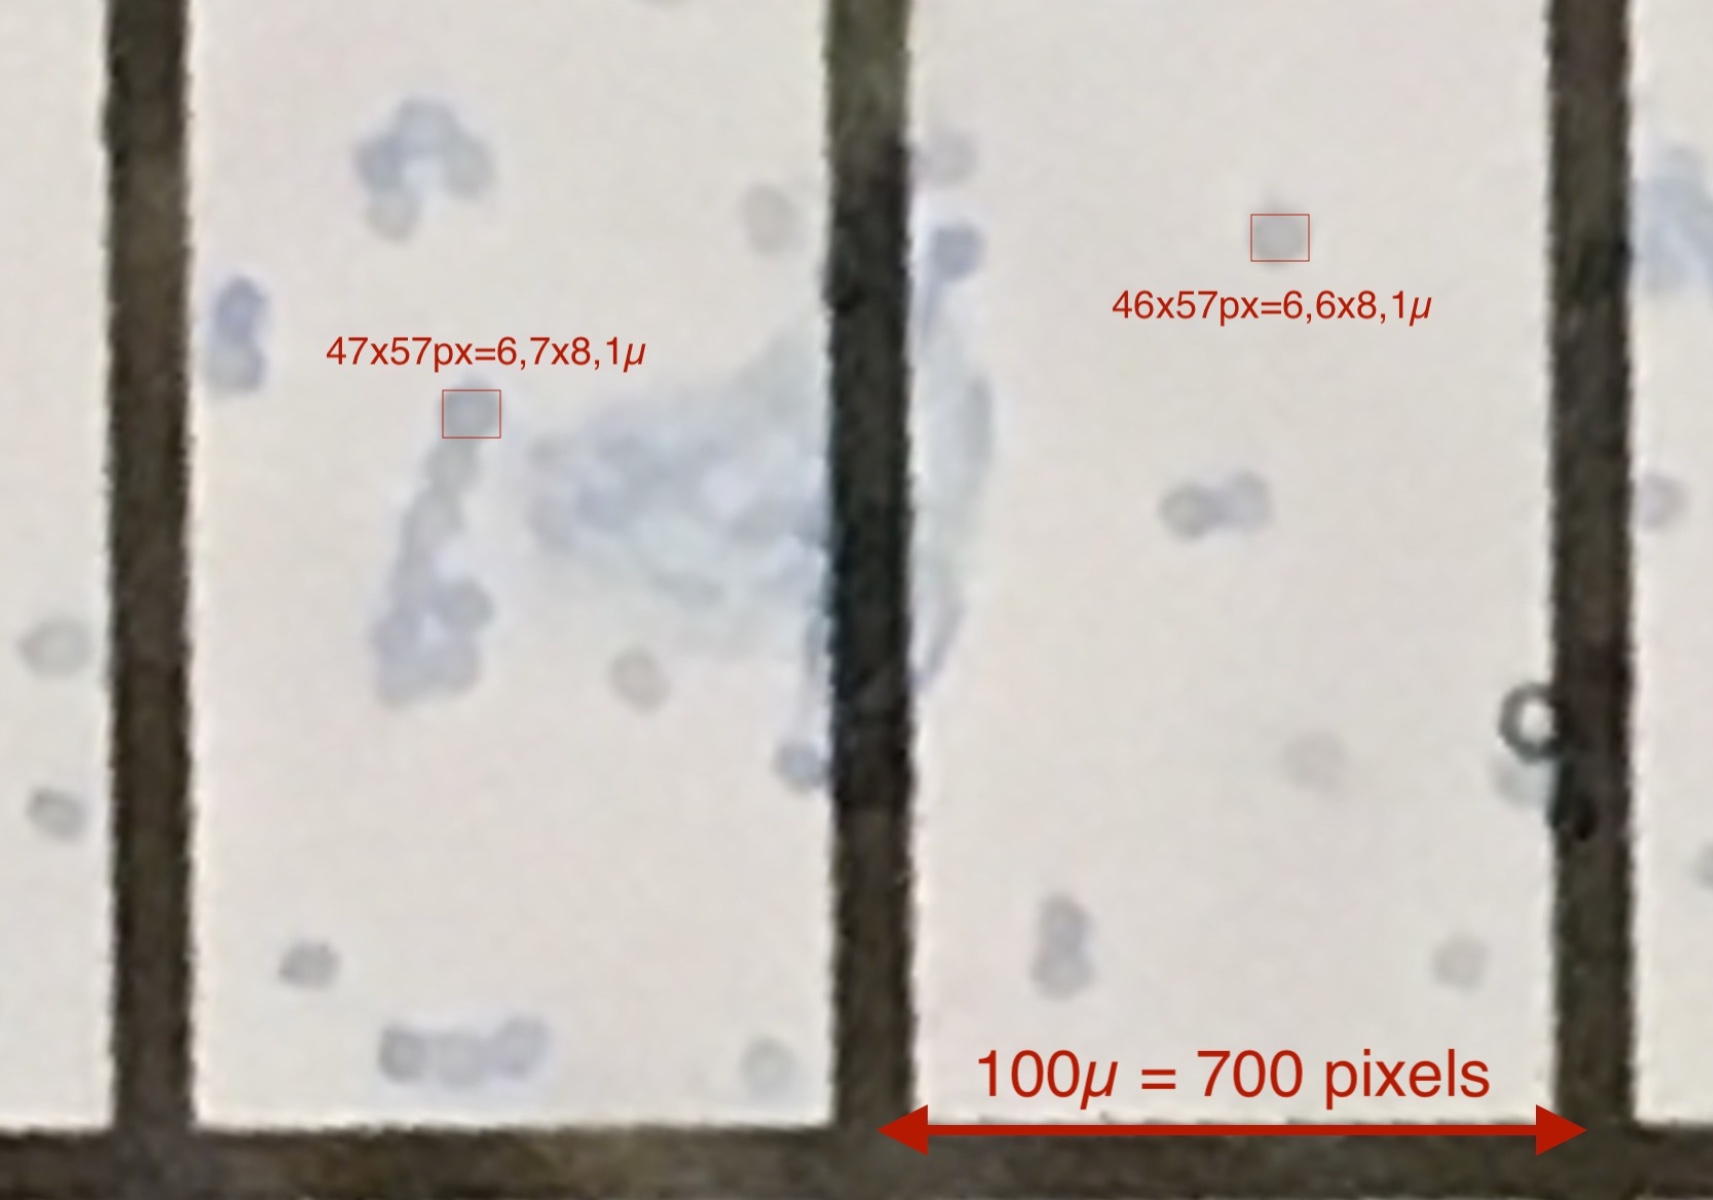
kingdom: Fungi
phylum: Basidiomycota
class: Agaricomycetes
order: Russulales
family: Russulaceae
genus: Lactarius
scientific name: Lactarius subdulcis
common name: sødlig mælkehat
